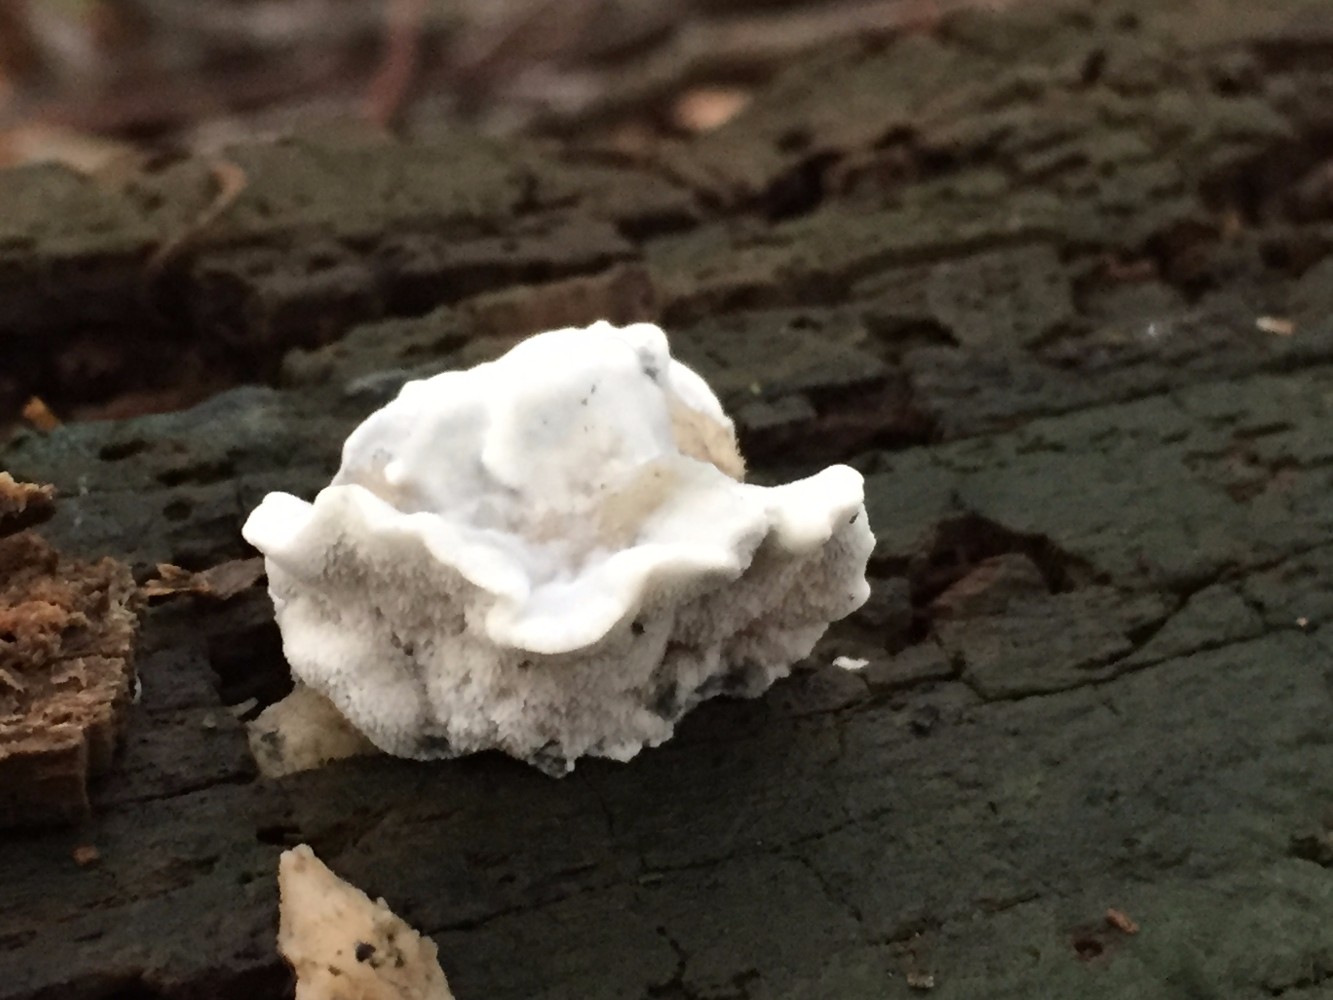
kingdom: Fungi
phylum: Basidiomycota
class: Agaricomycetes
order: Polyporales
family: Polyporaceae
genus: Cyanosporus
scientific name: Cyanosporus alni
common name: blegblå kødporesvamp
